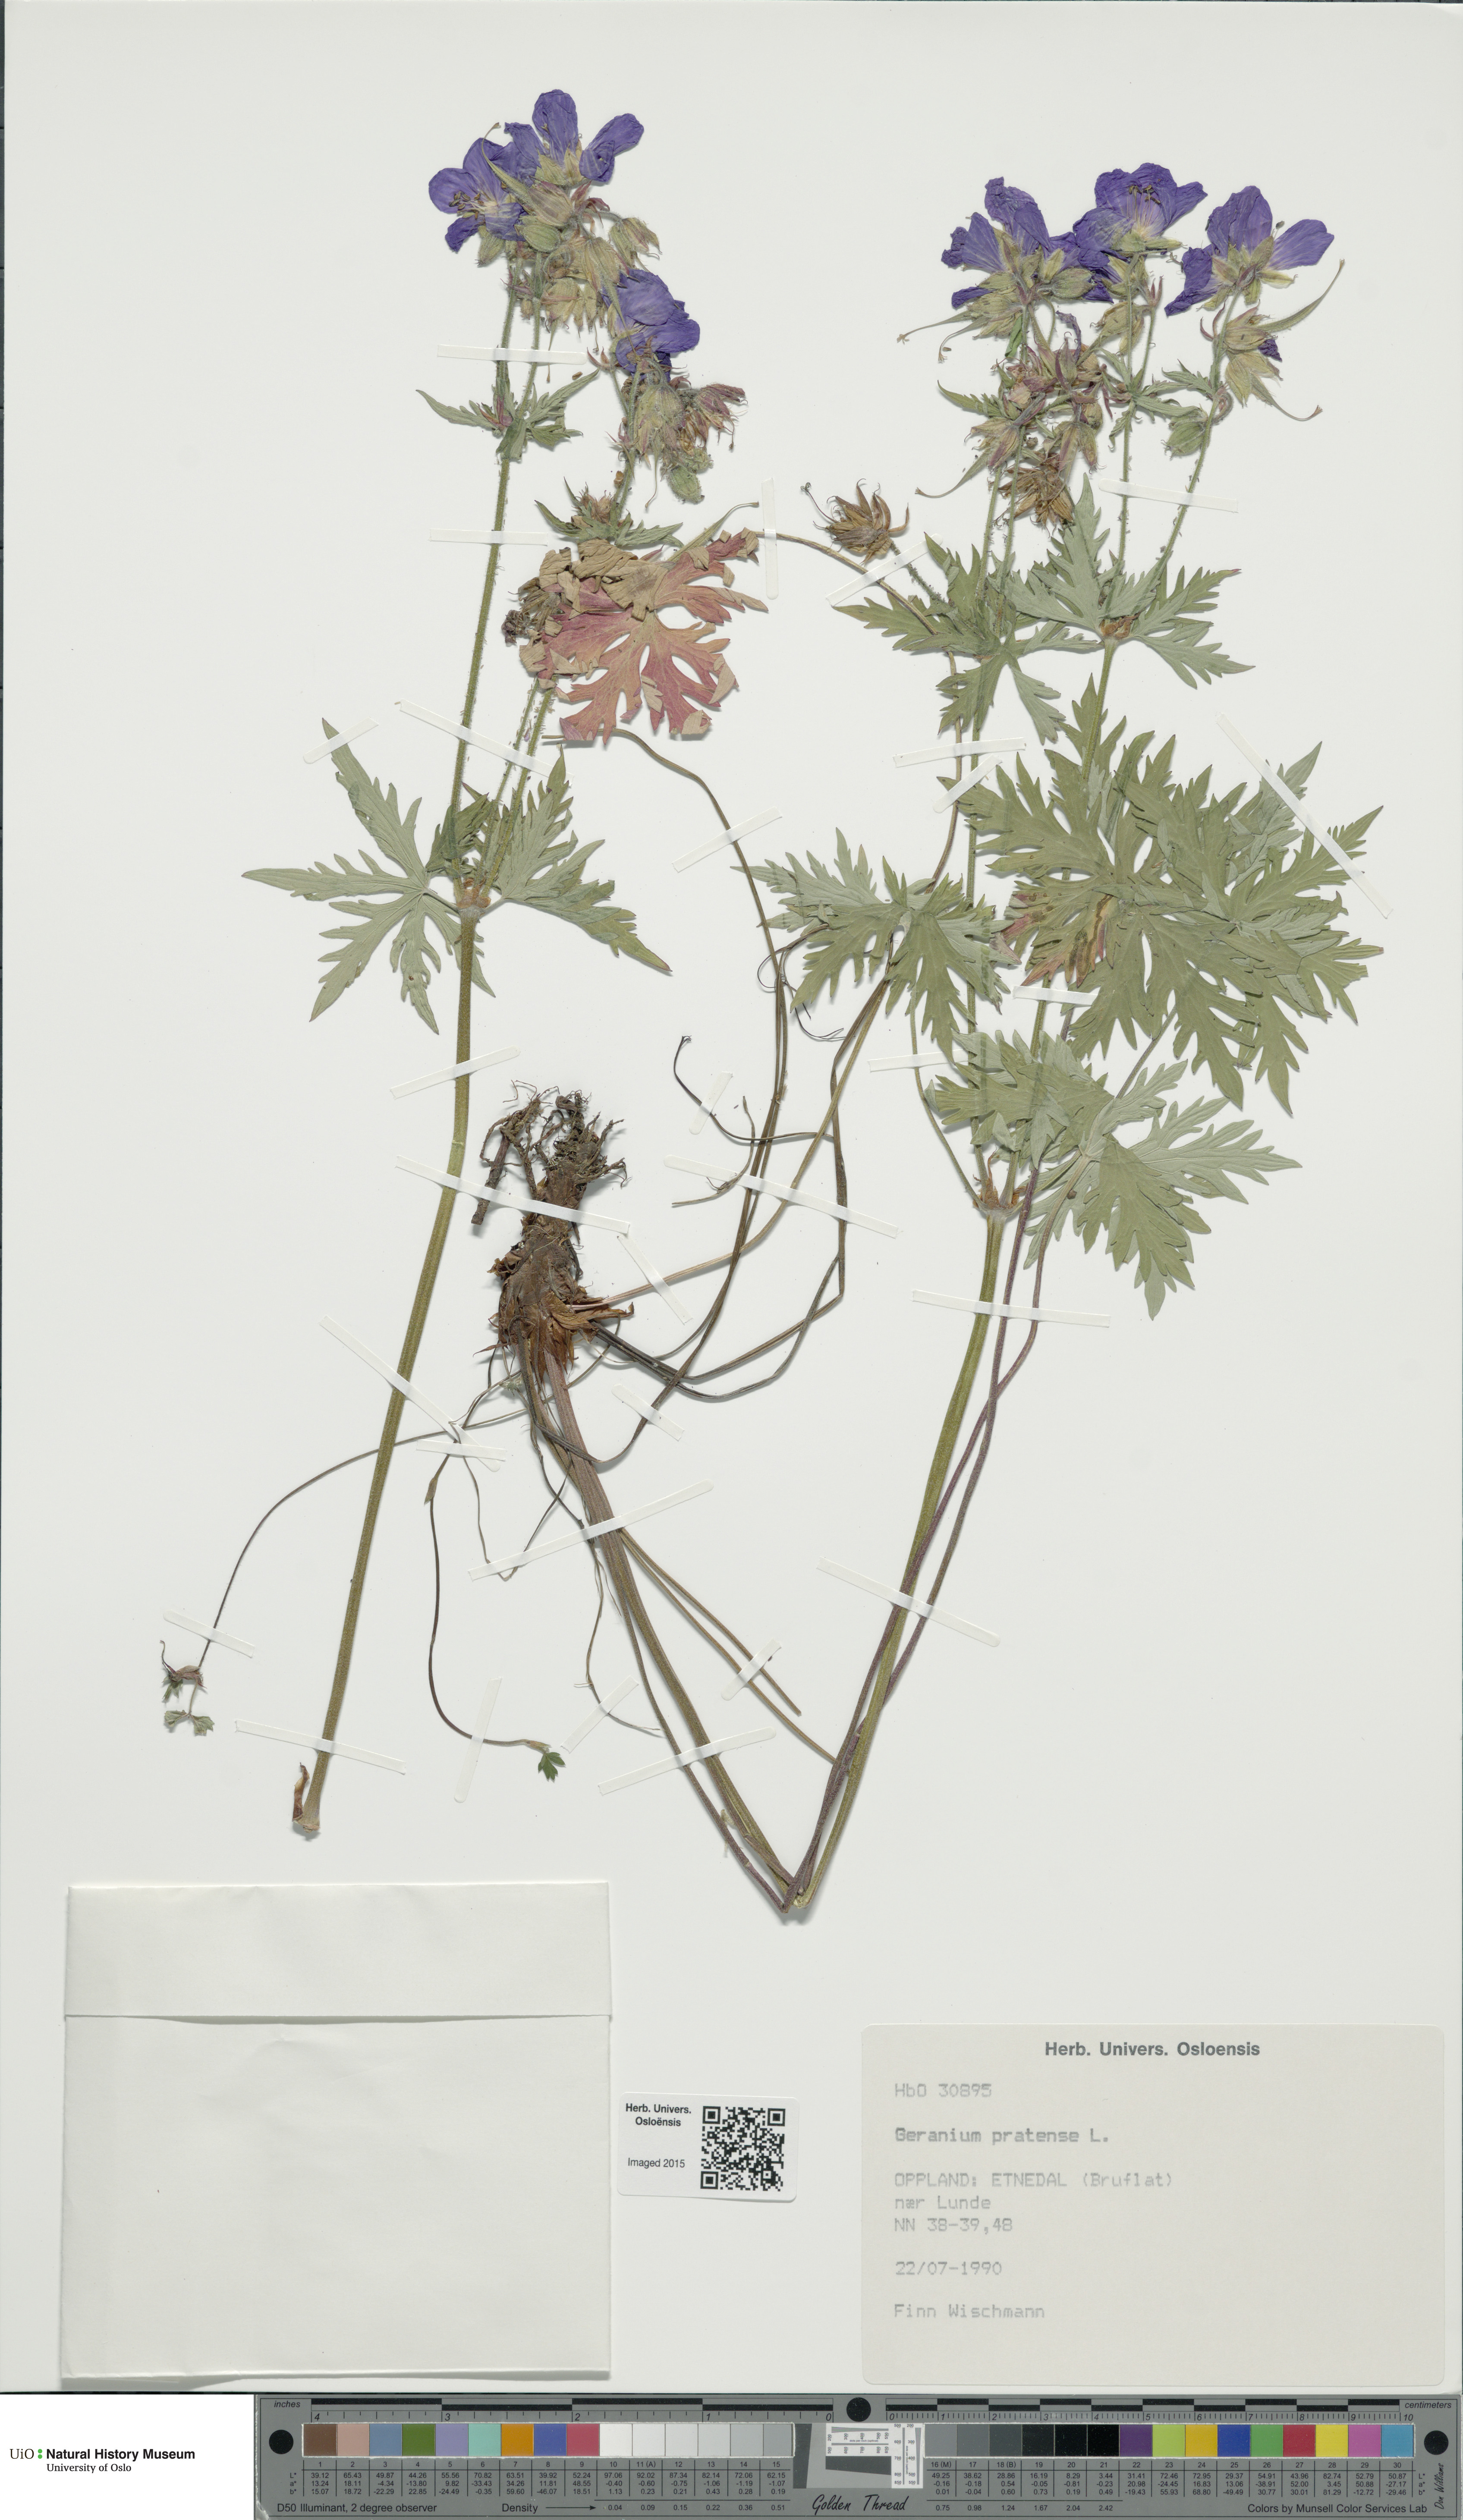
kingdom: Plantae
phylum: Tracheophyta
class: Magnoliopsida
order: Geraniales
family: Geraniaceae
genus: Geranium
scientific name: Geranium pratense
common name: Meadow crane's-bill
